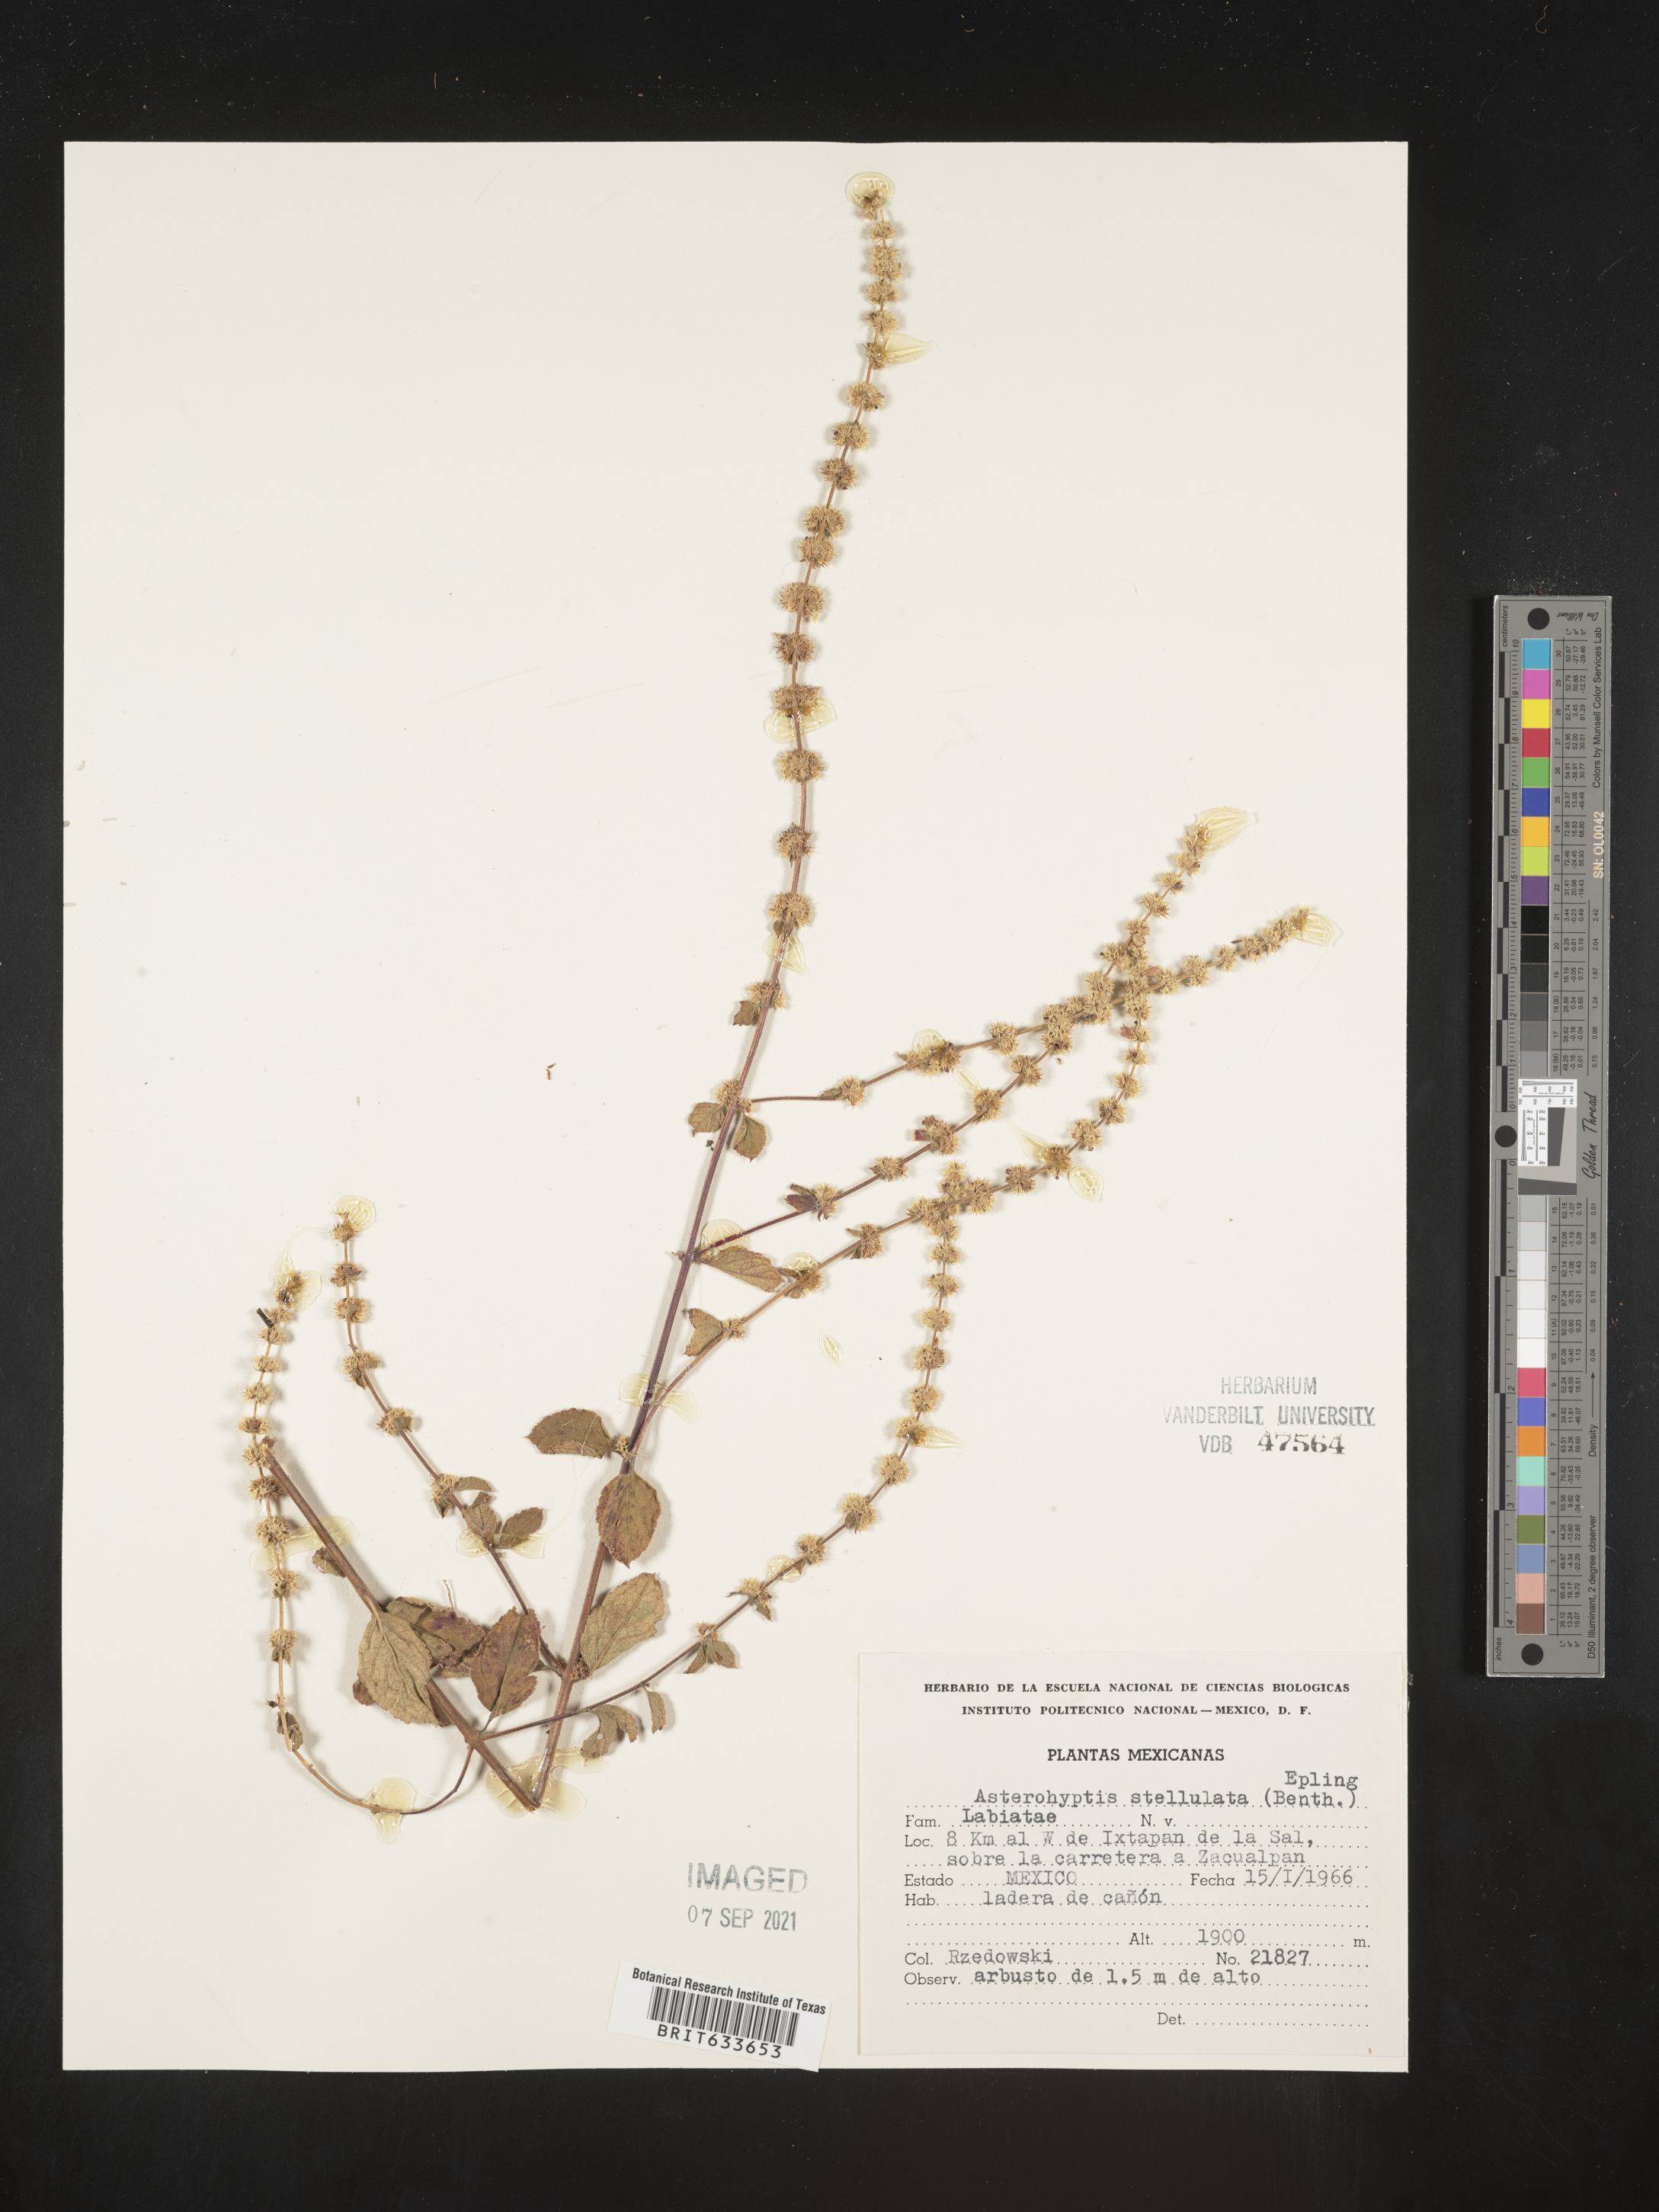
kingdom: Plantae
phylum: Tracheophyta
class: Magnoliopsida
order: Lamiales
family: Lamiaceae
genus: Asterohyptis
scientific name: Asterohyptis
